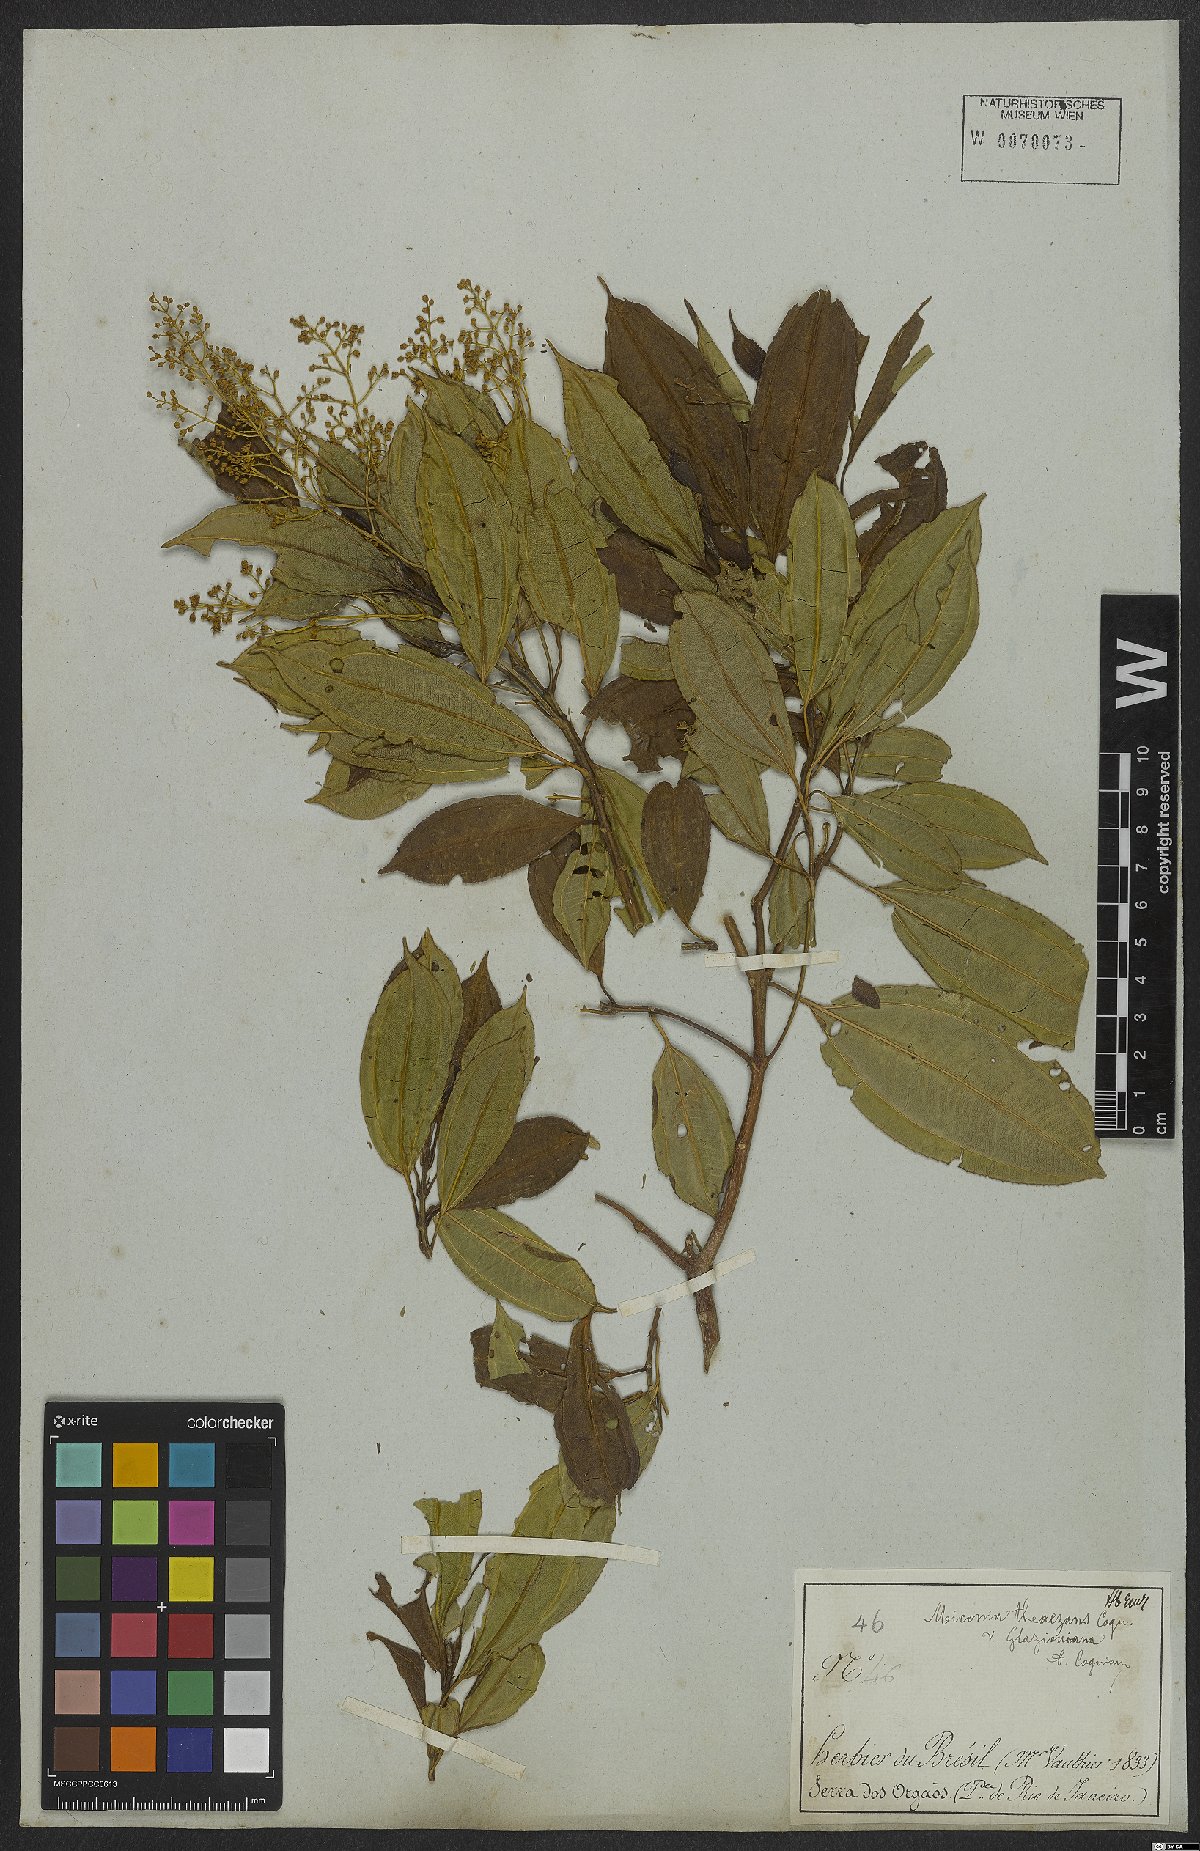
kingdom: Plantae
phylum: Tracheophyta
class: Magnoliopsida
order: Myrtales
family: Melastomataceae
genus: Miconia
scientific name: Miconia theizans
